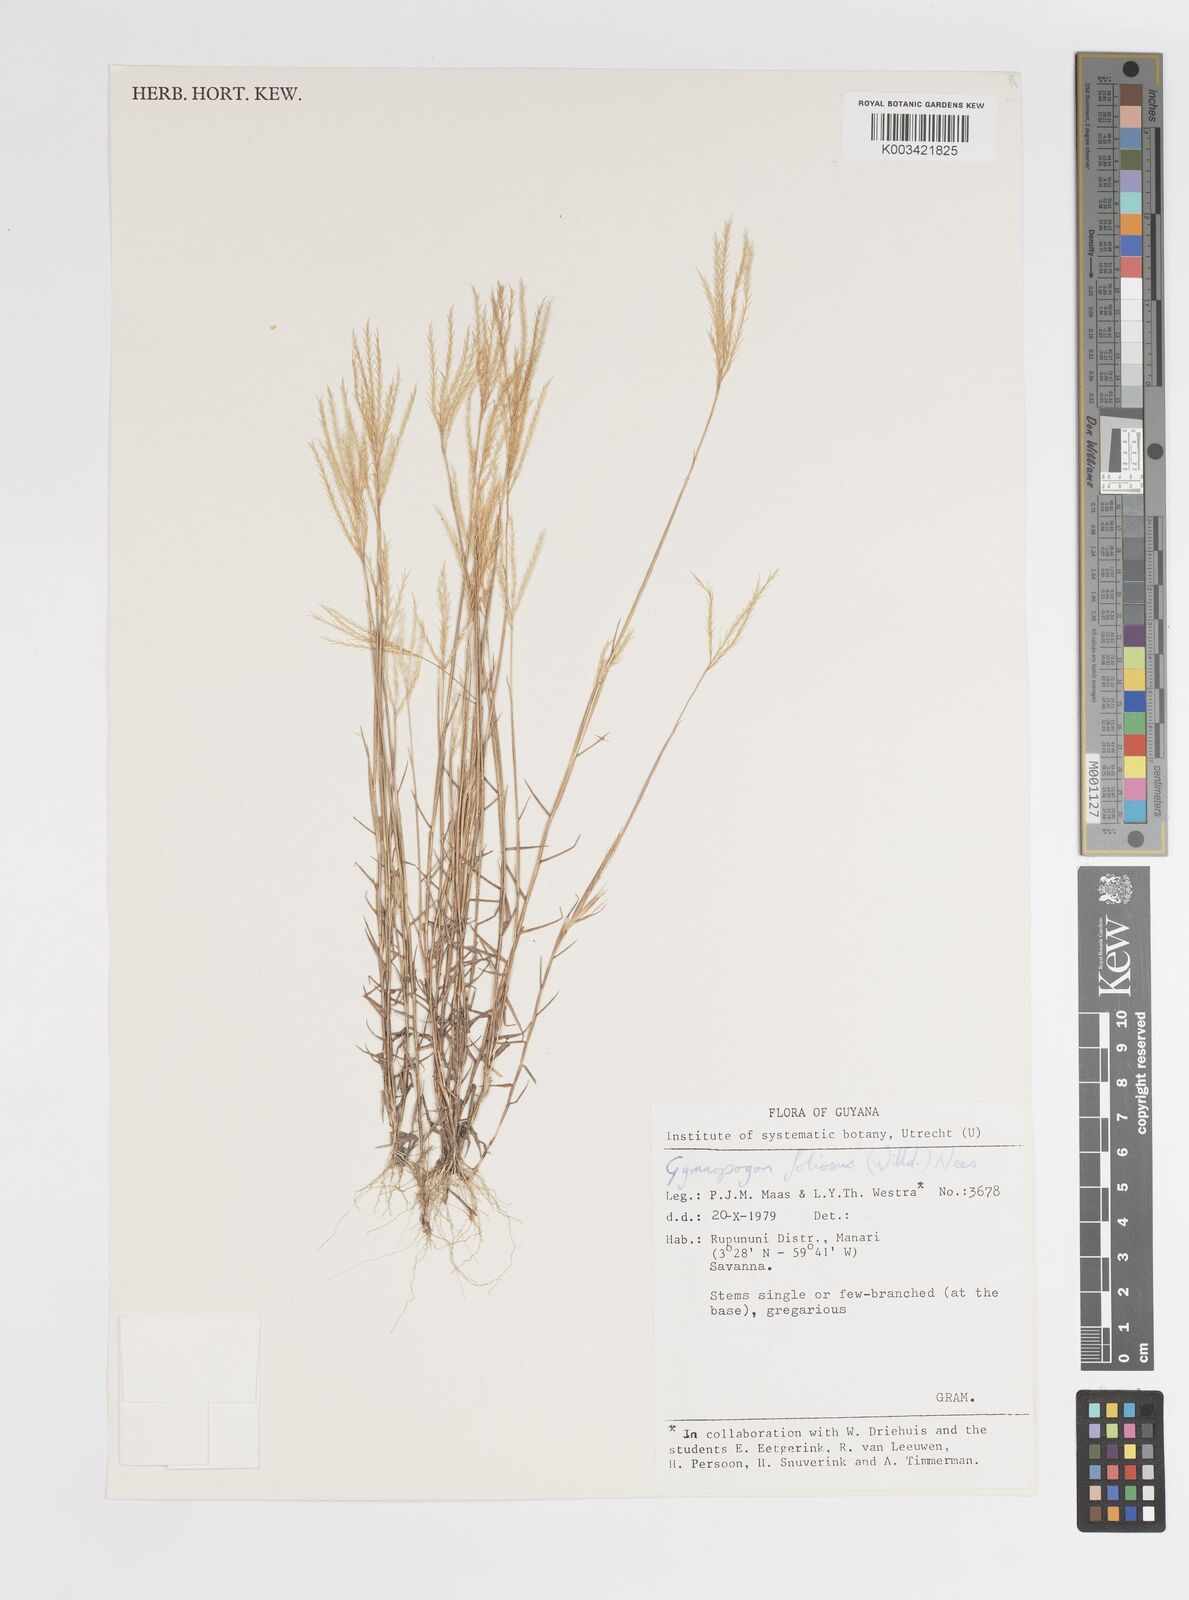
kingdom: Plantae
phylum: Tracheophyta
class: Liliopsida
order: Poales
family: Poaceae
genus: Gymnopogon
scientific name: Gymnopogon foliosus
